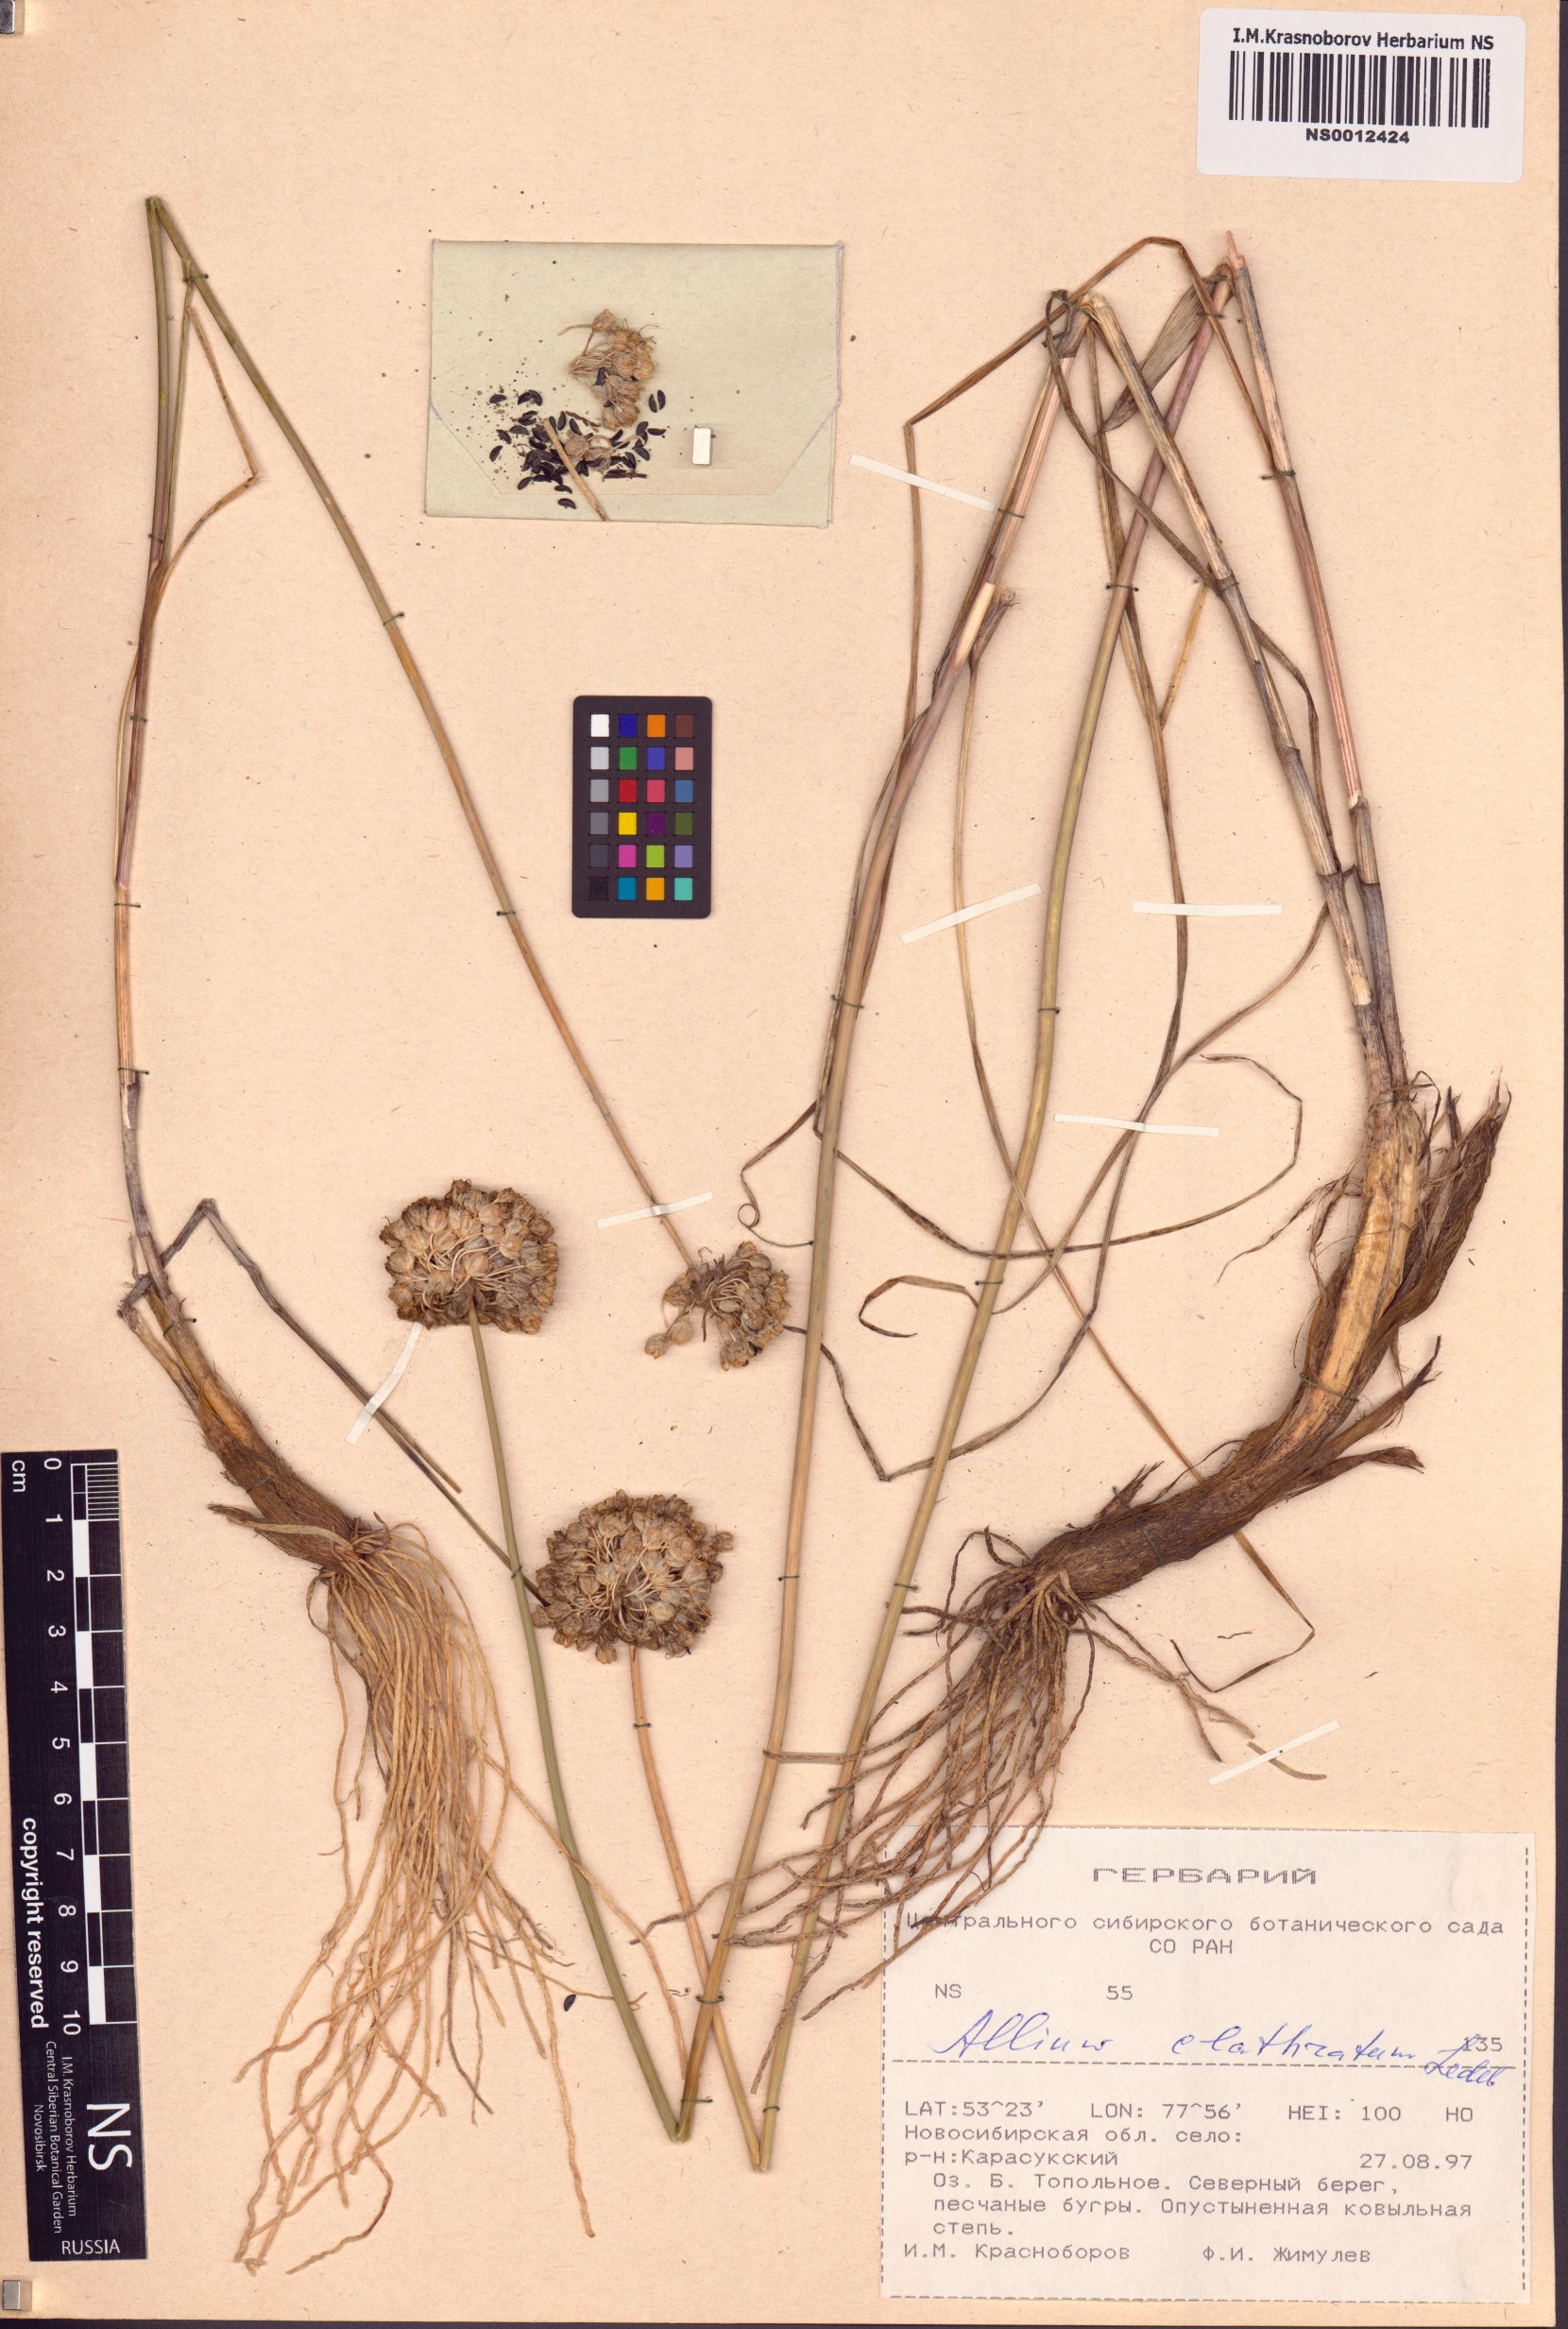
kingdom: Plantae
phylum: Tracheophyta
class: Liliopsida
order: Asparagales
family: Amaryllidaceae
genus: Allium
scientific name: Allium clathratum
